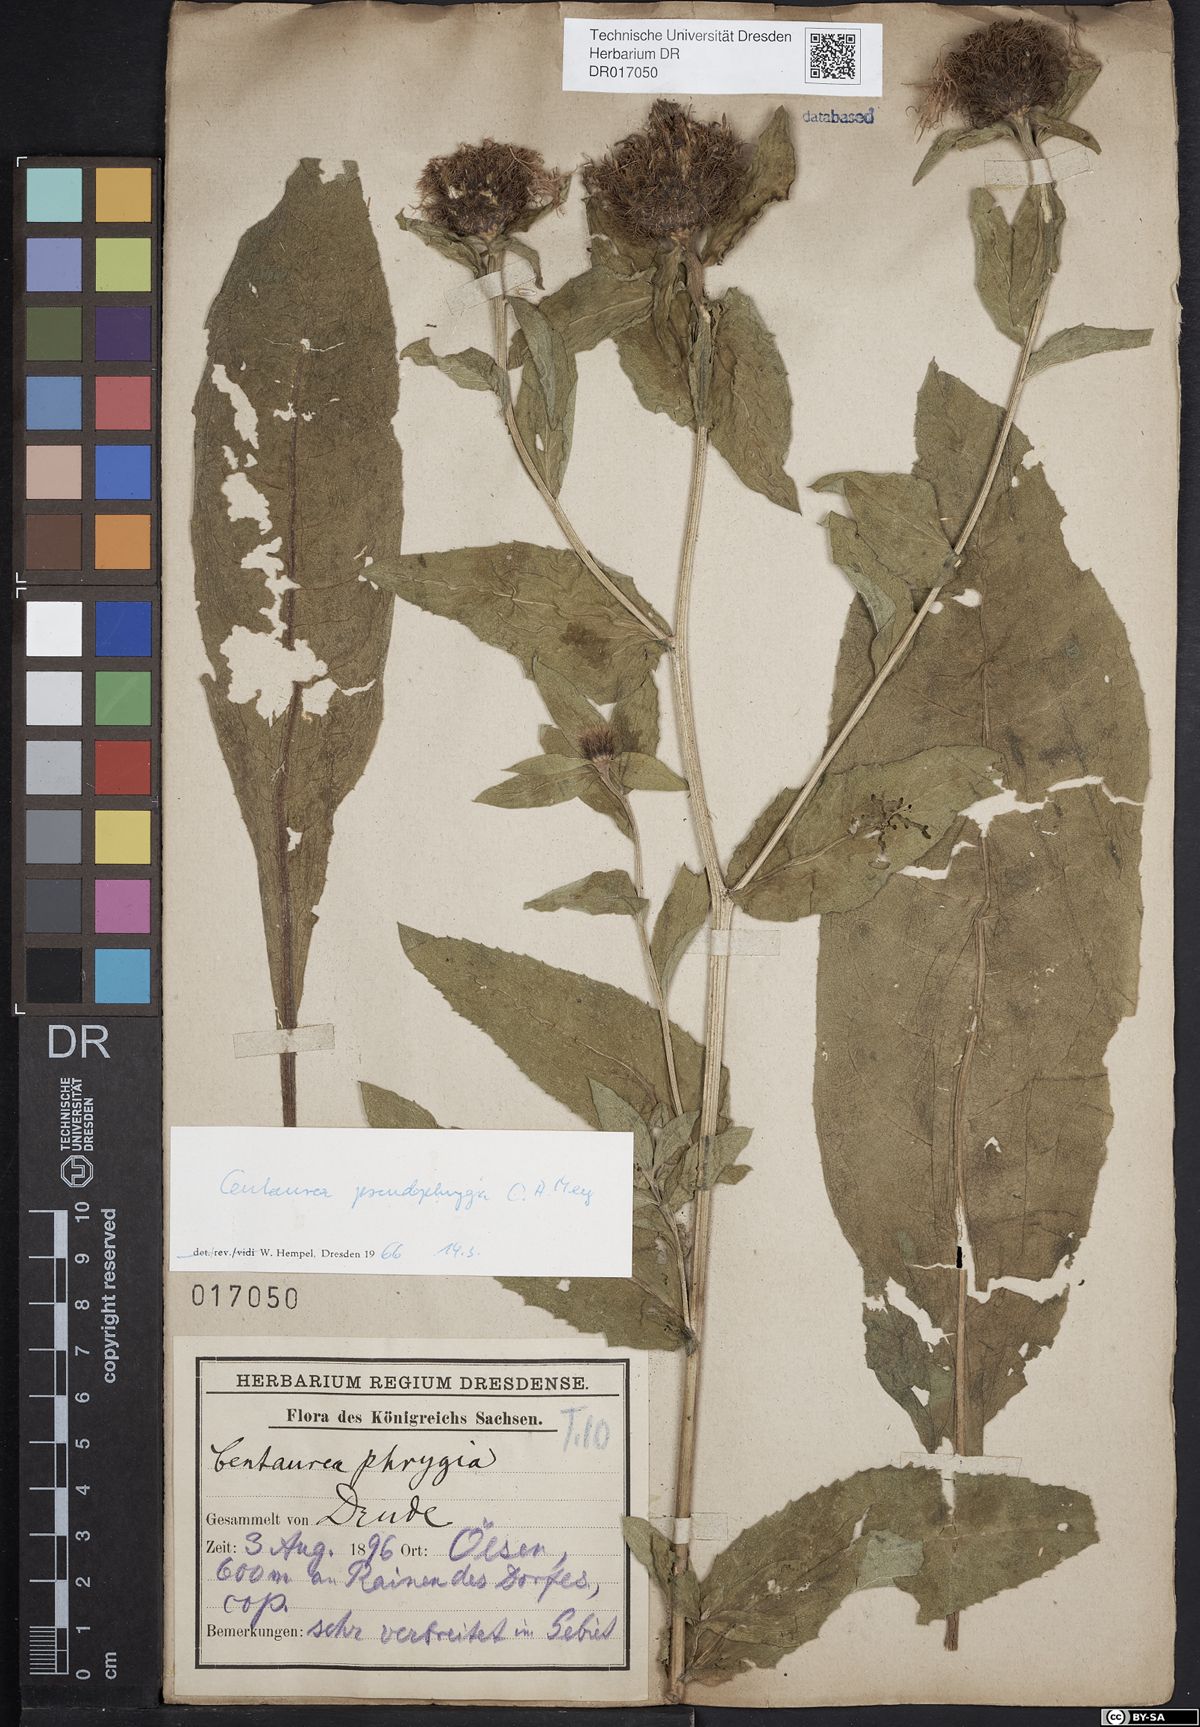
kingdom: Plantae
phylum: Tracheophyta
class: Magnoliopsida
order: Asterales
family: Asteraceae
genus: Centaurea
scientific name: Centaurea pseudophrygia
